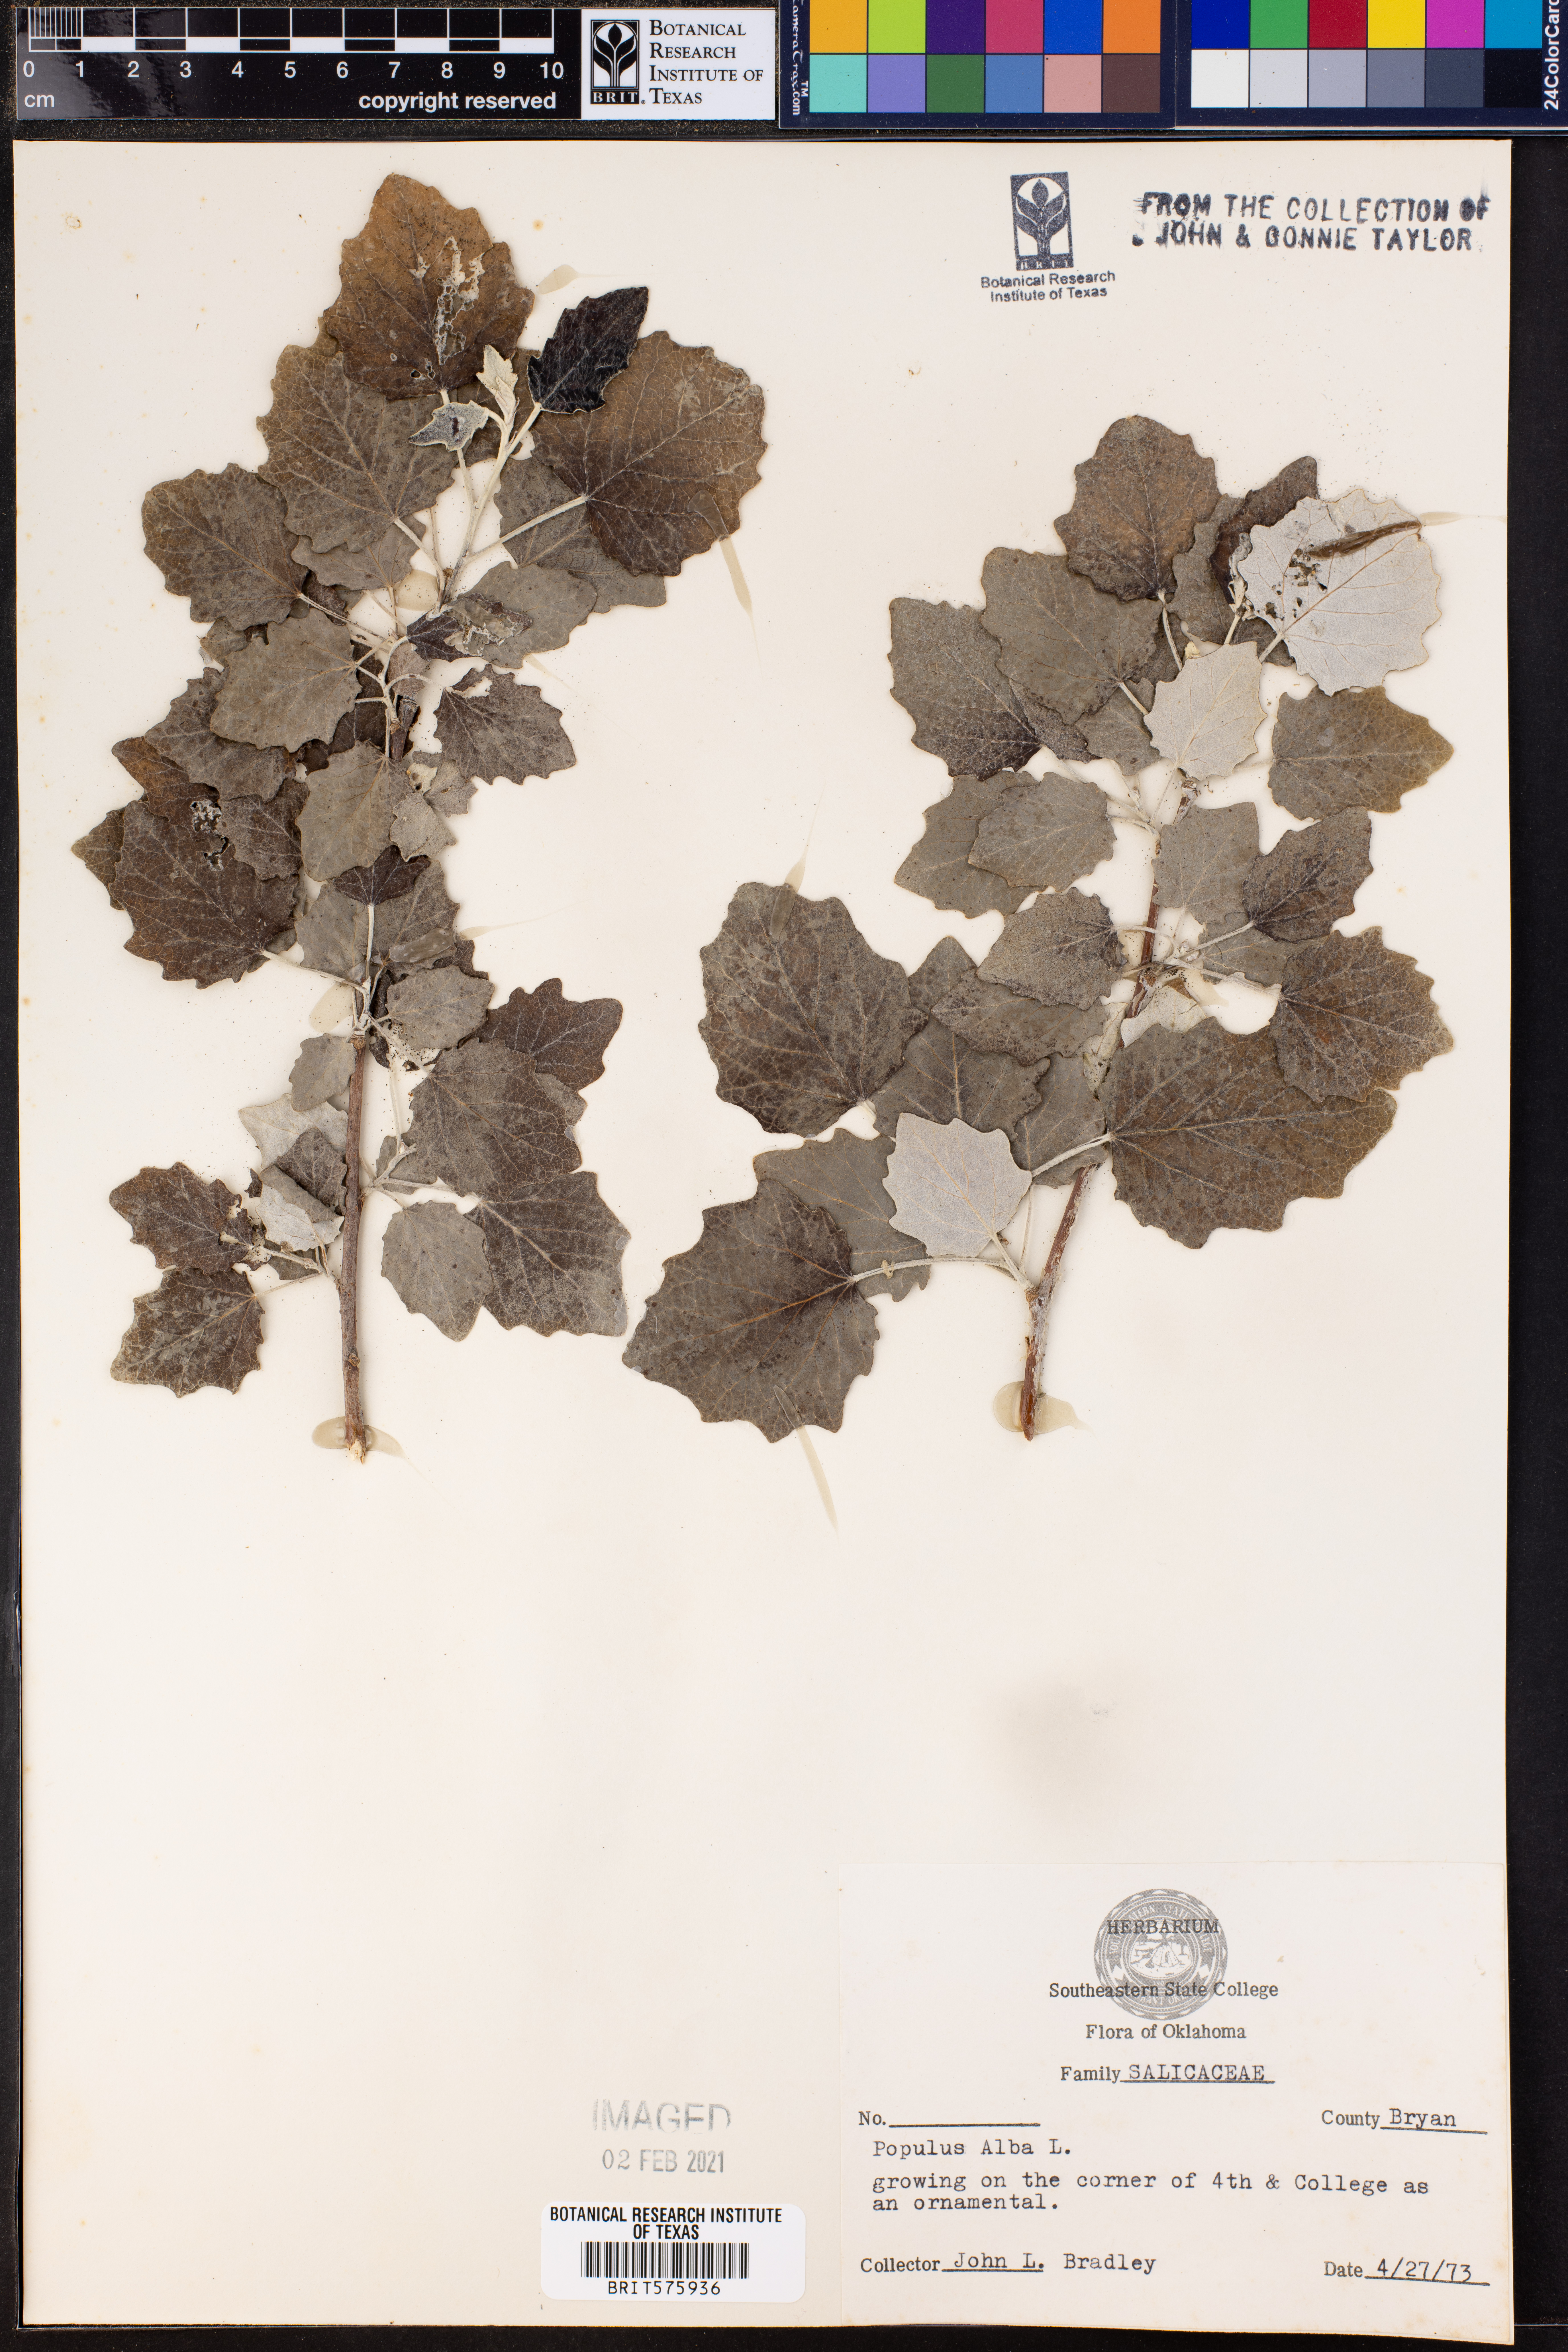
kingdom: Plantae
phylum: Tracheophyta
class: Magnoliopsida
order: Malpighiales
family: Salicaceae
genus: Populus
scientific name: Populus alba
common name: White poplar
